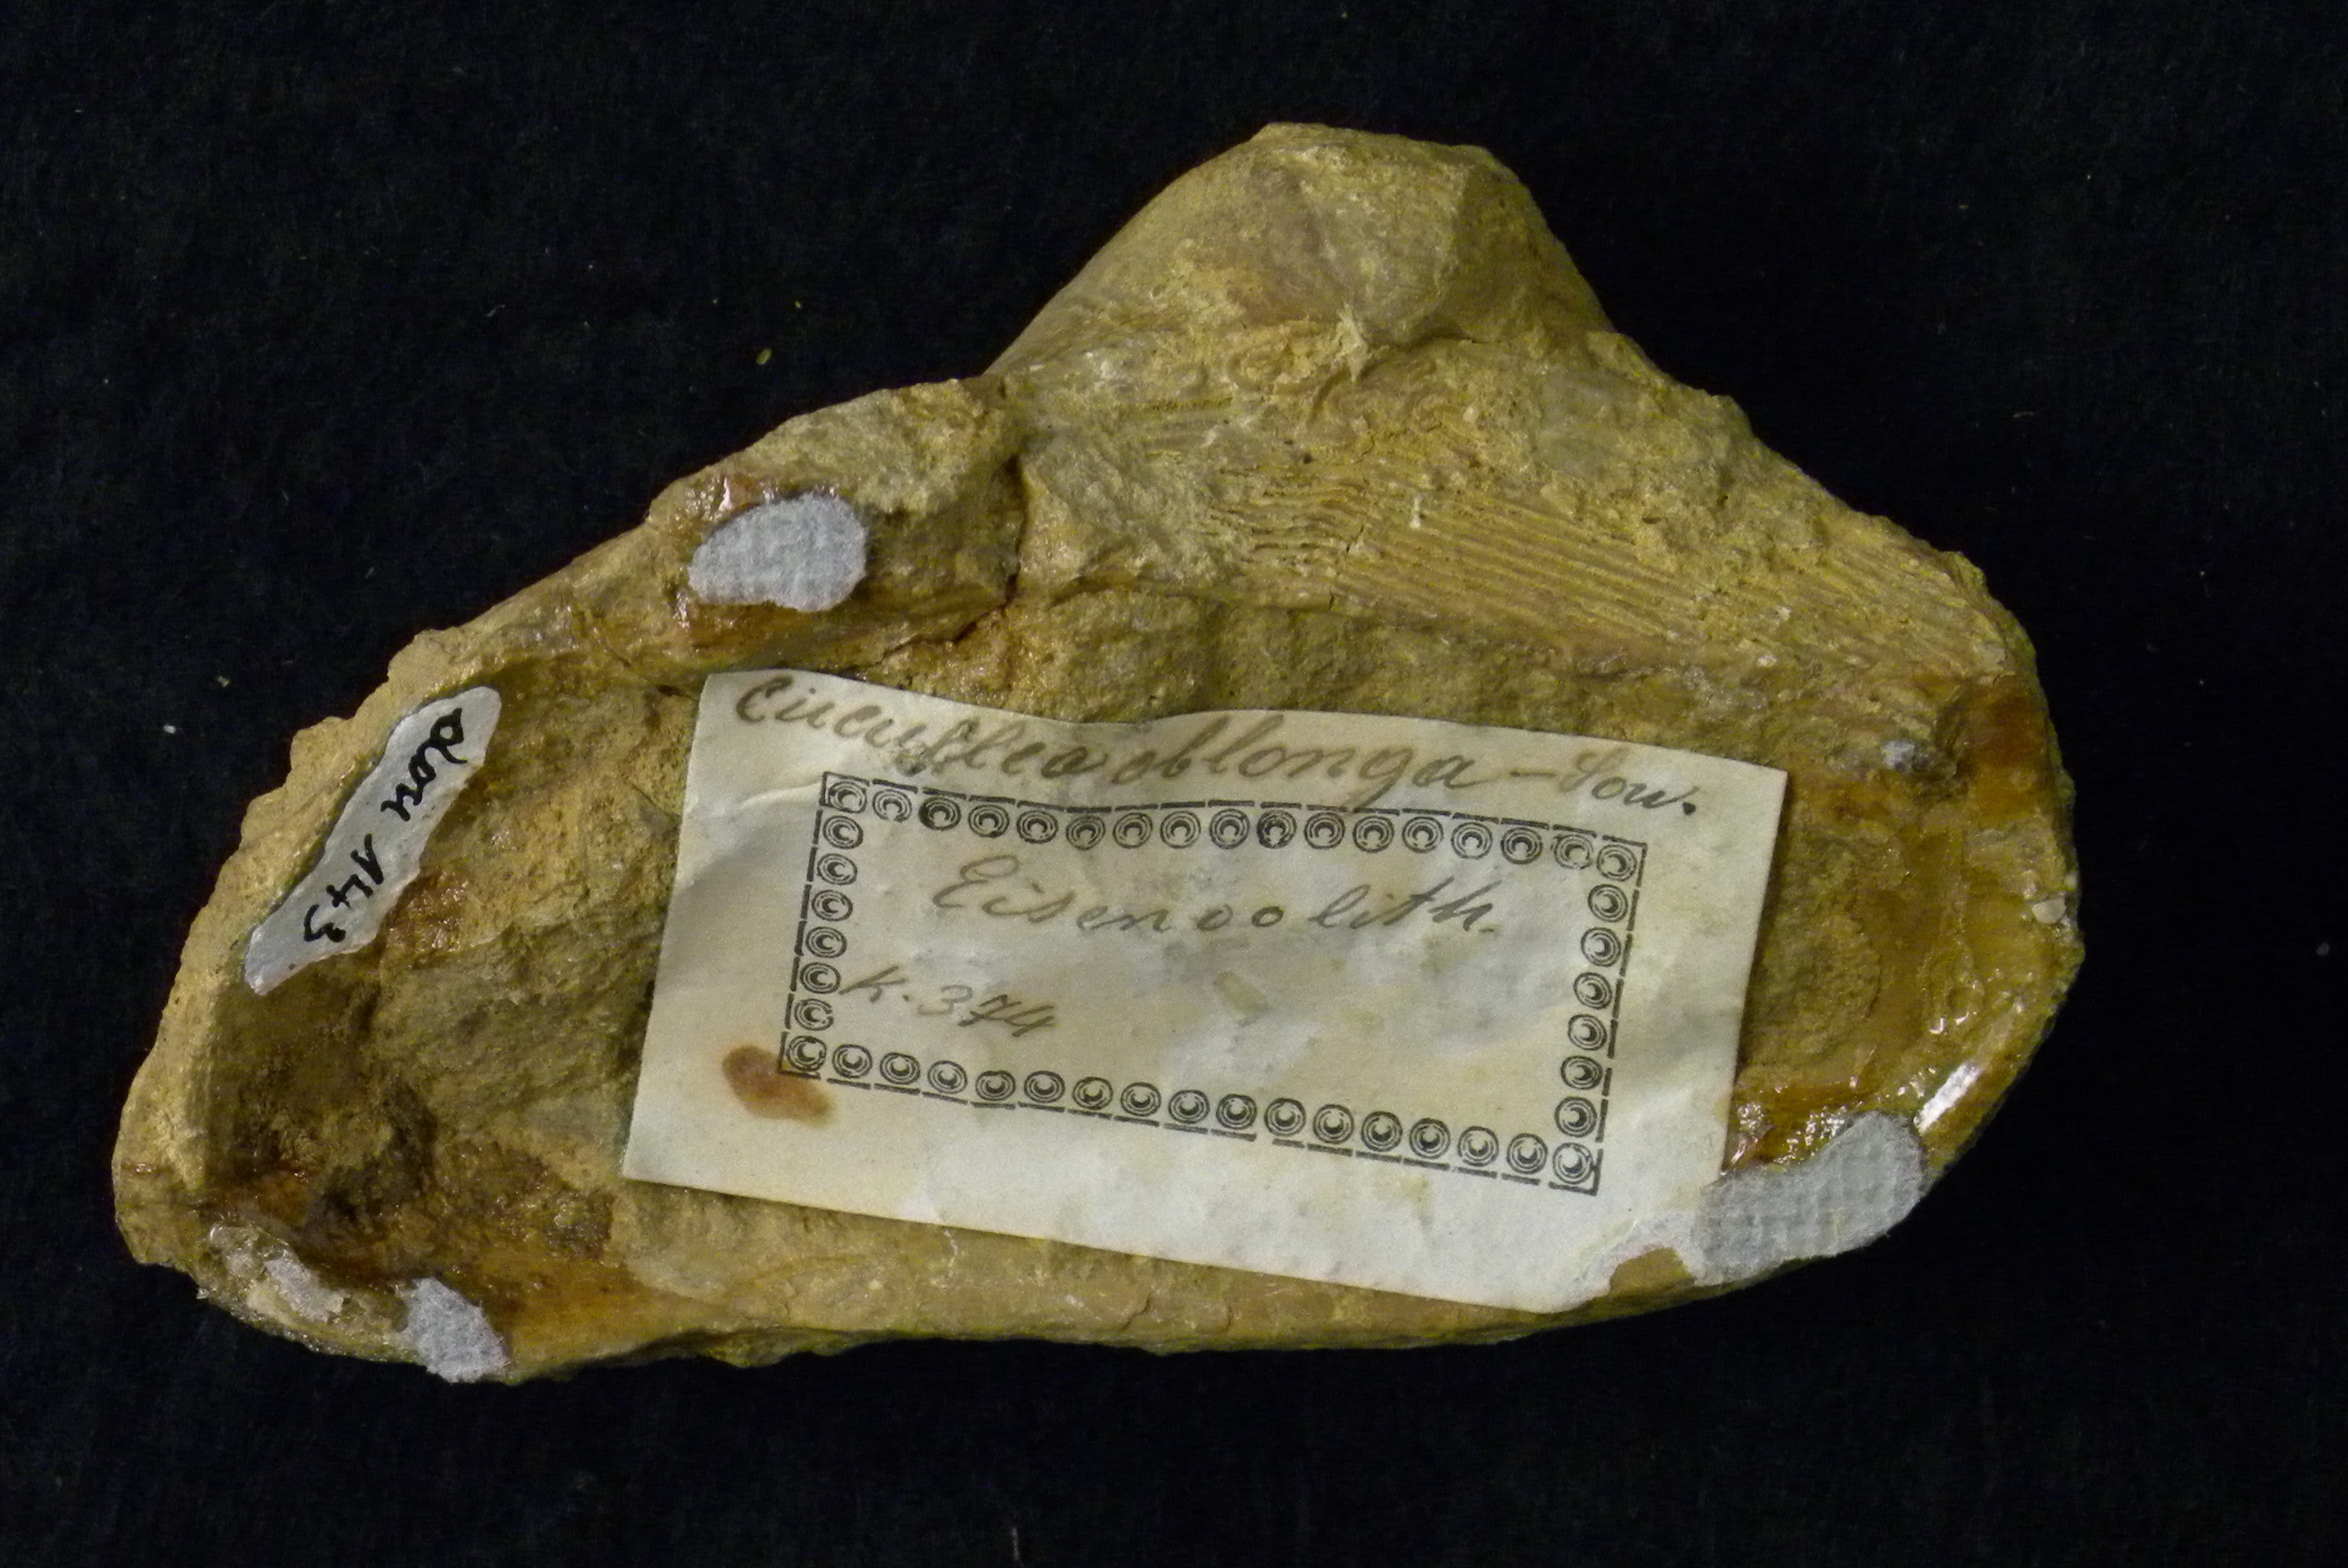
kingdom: Animalia
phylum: Mollusca
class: Bivalvia
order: Arcida
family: Cucullaeidae
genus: Cucullaea
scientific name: Cucullaea
